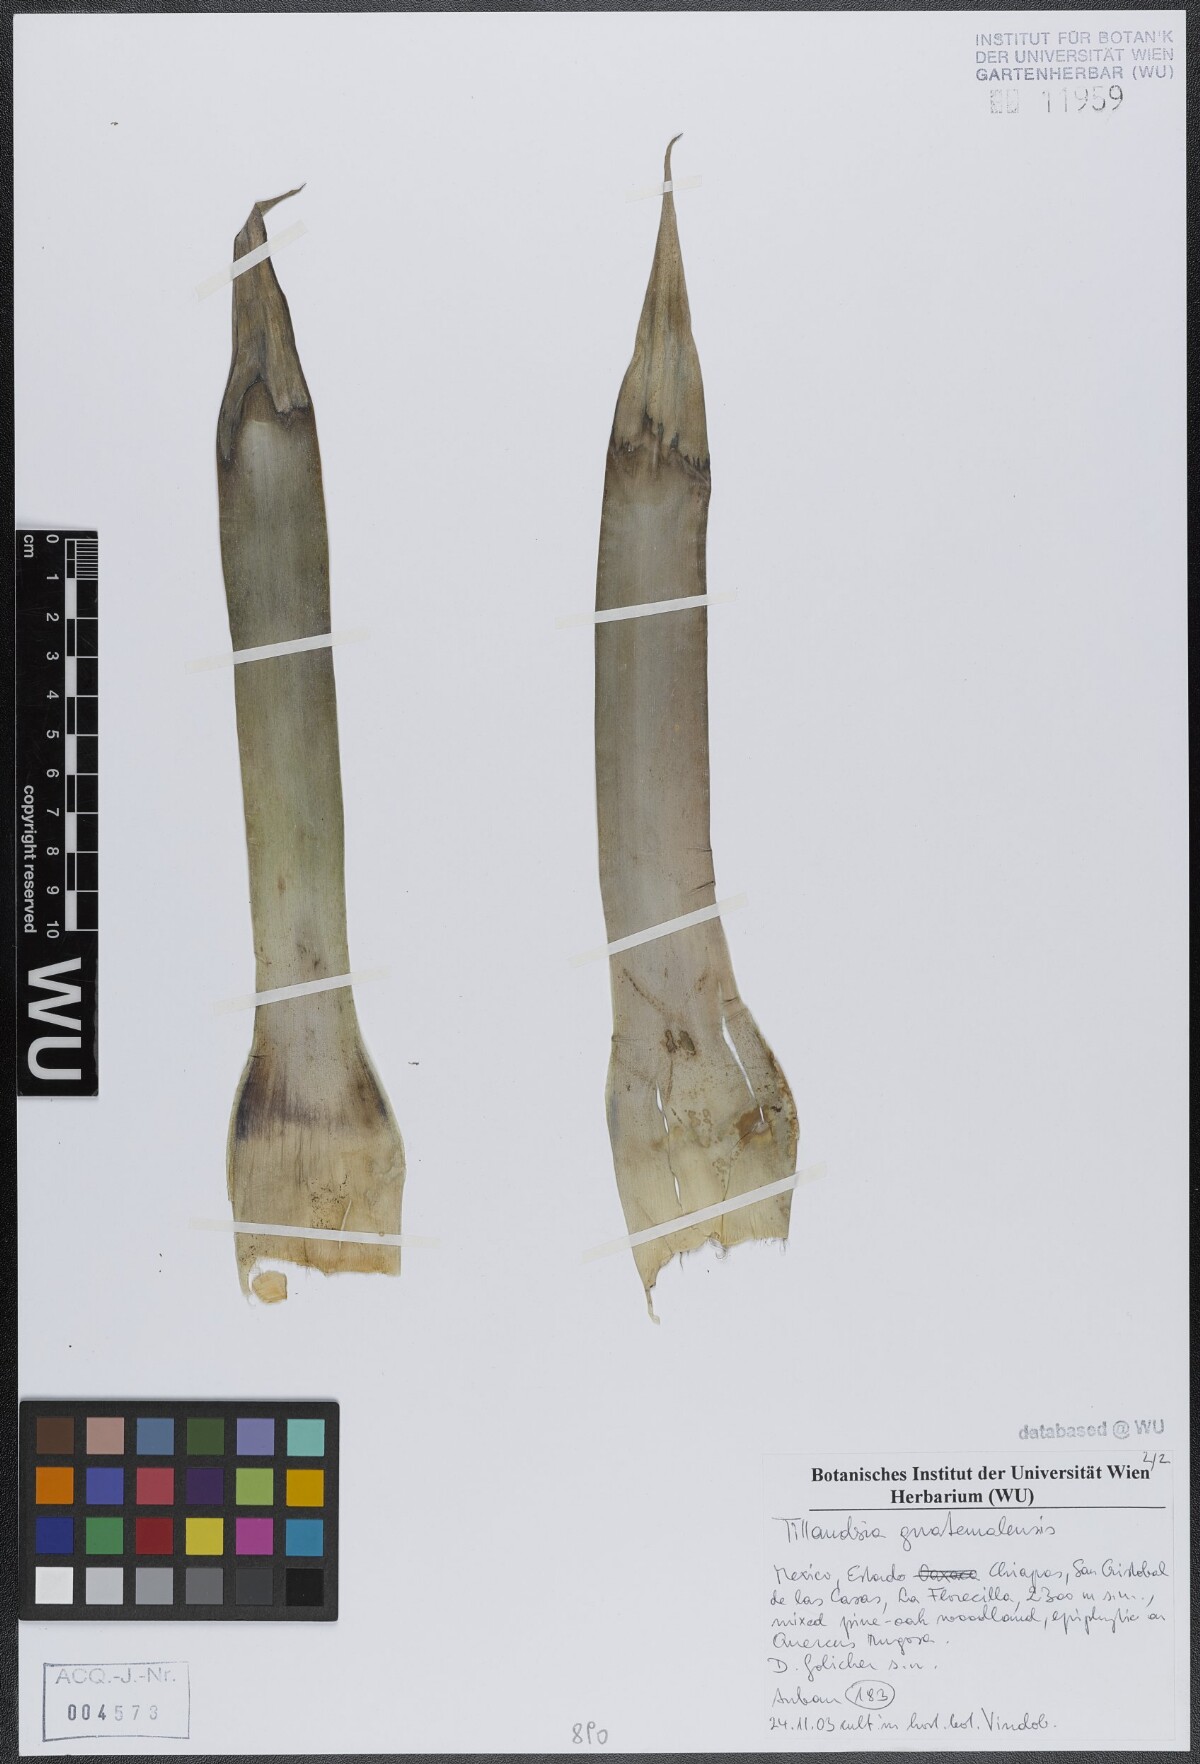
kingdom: Plantae
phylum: Tracheophyta
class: Liliopsida
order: Poales
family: Bromeliaceae
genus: Tillandsia
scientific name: Tillandsia guatemalensis
